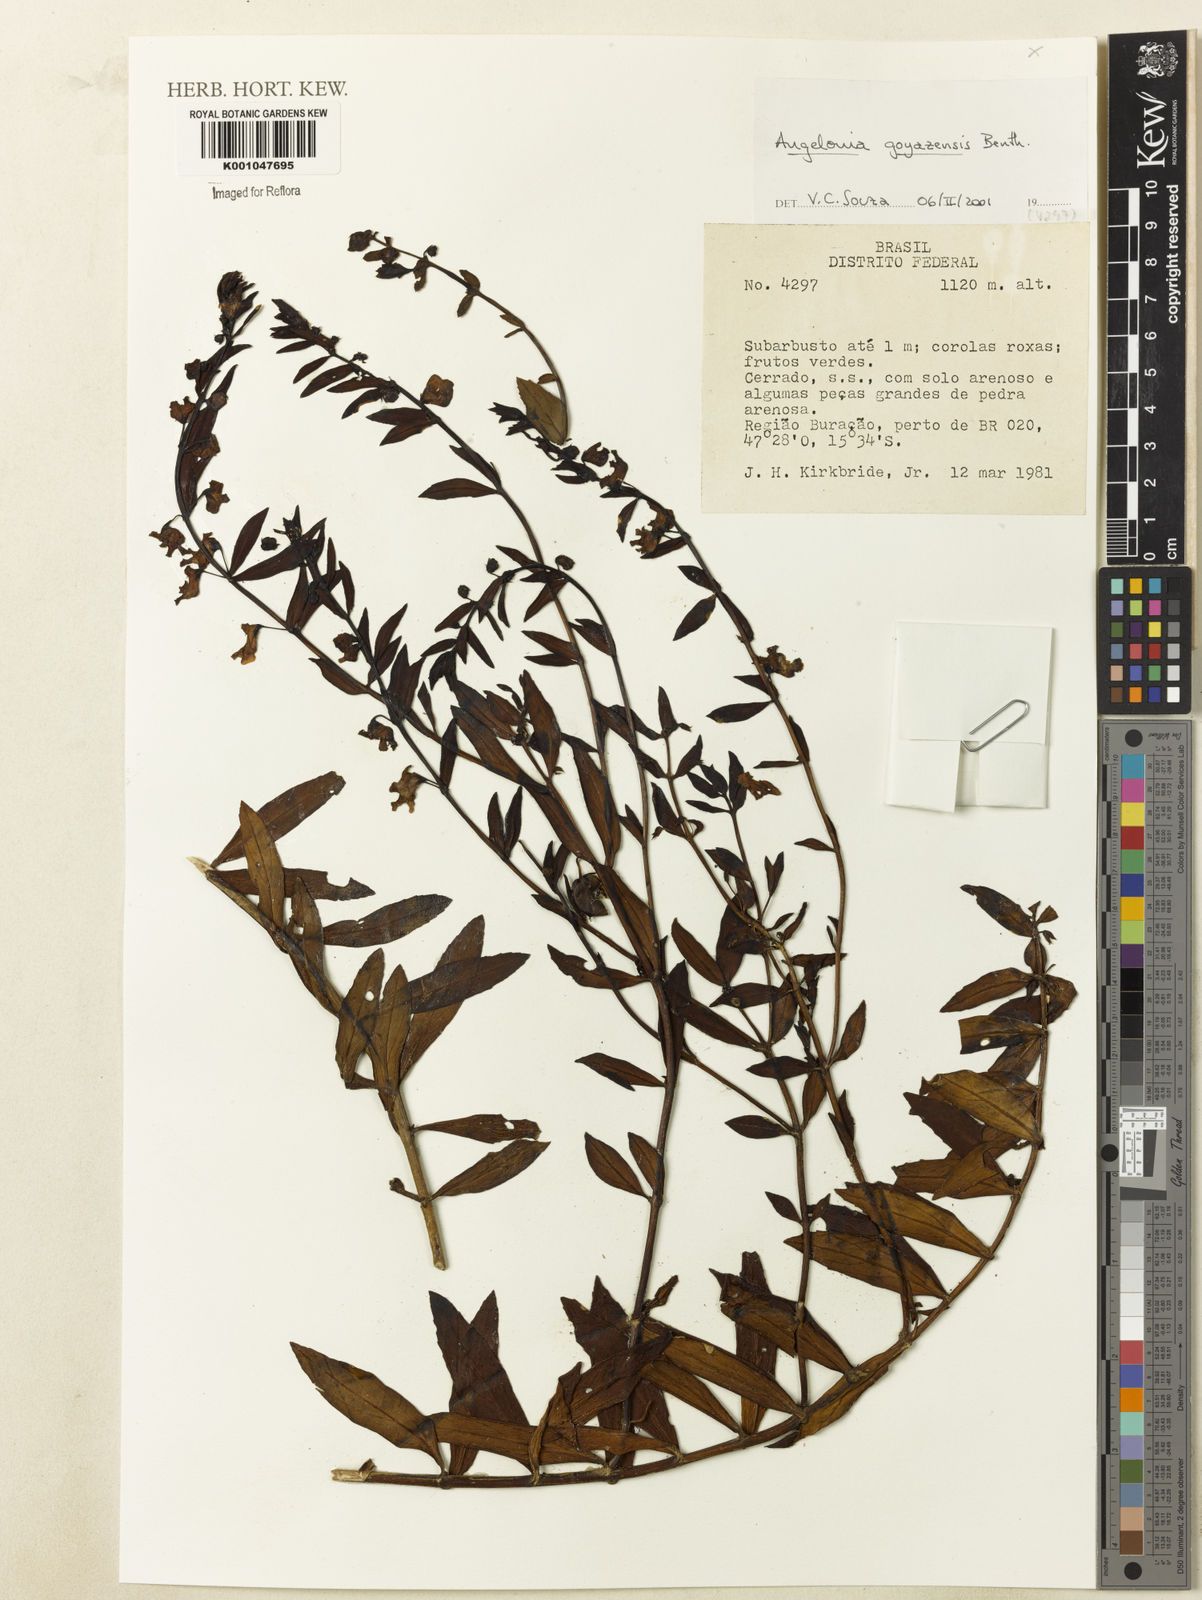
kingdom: Plantae
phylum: Tracheophyta
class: Magnoliopsida
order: Lamiales
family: Plantaginaceae
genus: Angelonia
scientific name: Angelonia goyazensis
